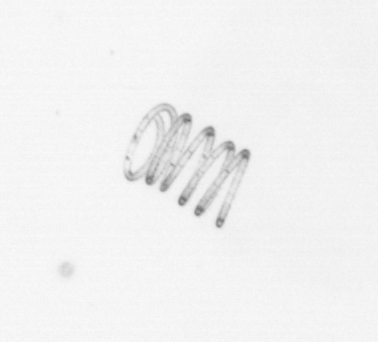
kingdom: Chromista
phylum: Ochrophyta
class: Bacillariophyceae
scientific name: Bacillariophyceae
